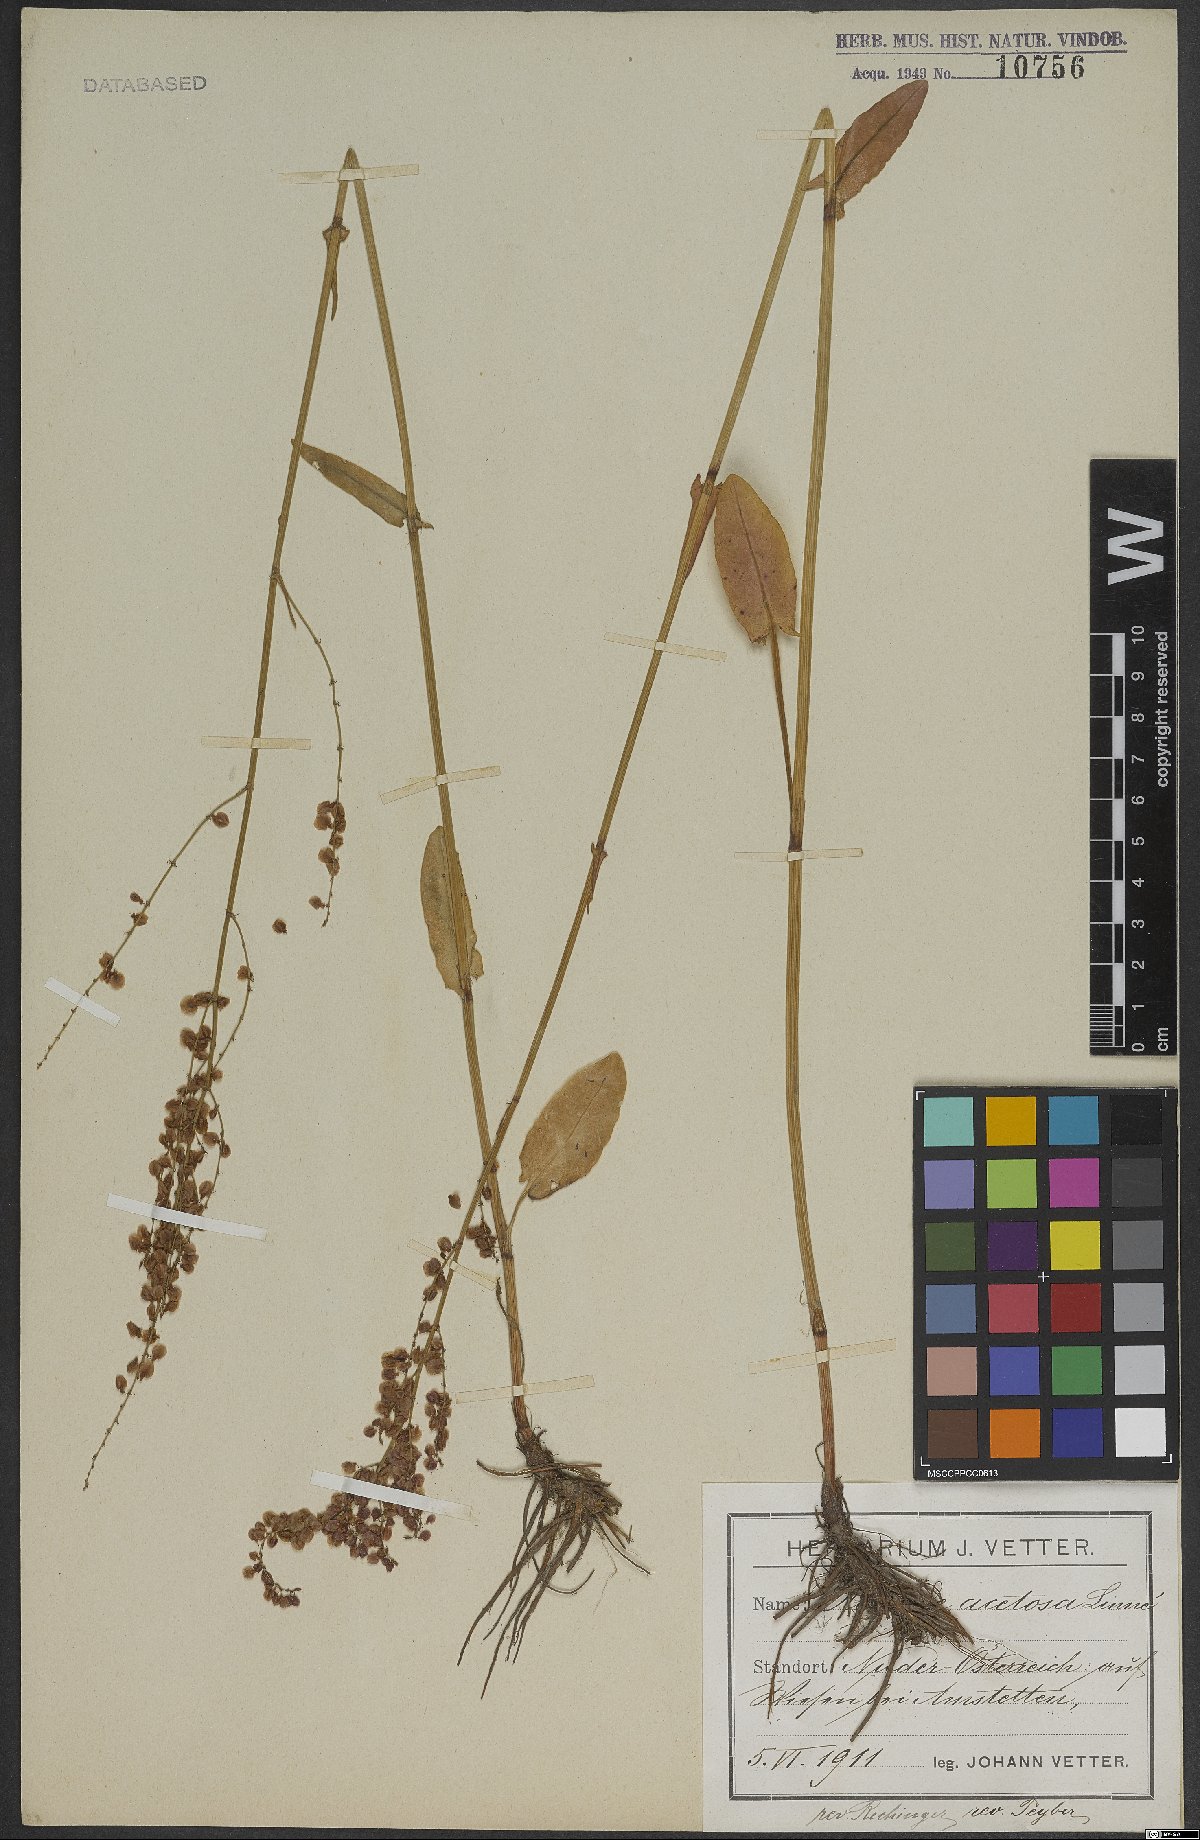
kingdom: Plantae
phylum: Tracheophyta
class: Magnoliopsida
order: Caryophyllales
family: Polygonaceae
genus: Rumex
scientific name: Rumex acetosa
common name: Garden sorrel
